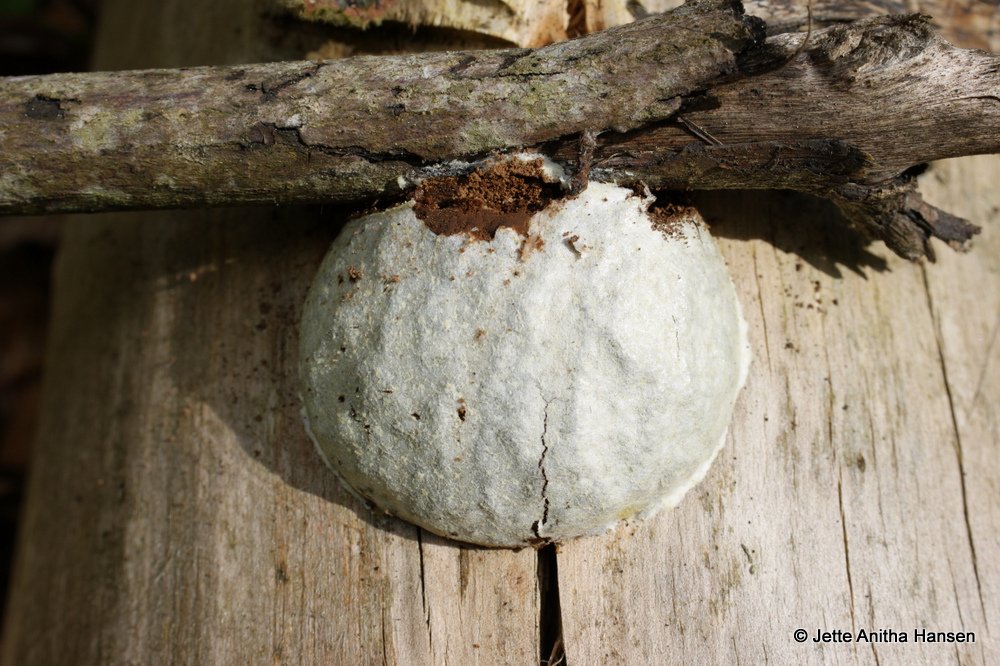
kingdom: Protozoa
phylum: Mycetozoa
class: Myxomycetes
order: Cribrariales
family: Tubiferaceae
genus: Reticularia
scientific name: Reticularia lycoperdon
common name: skinnende støvpude
